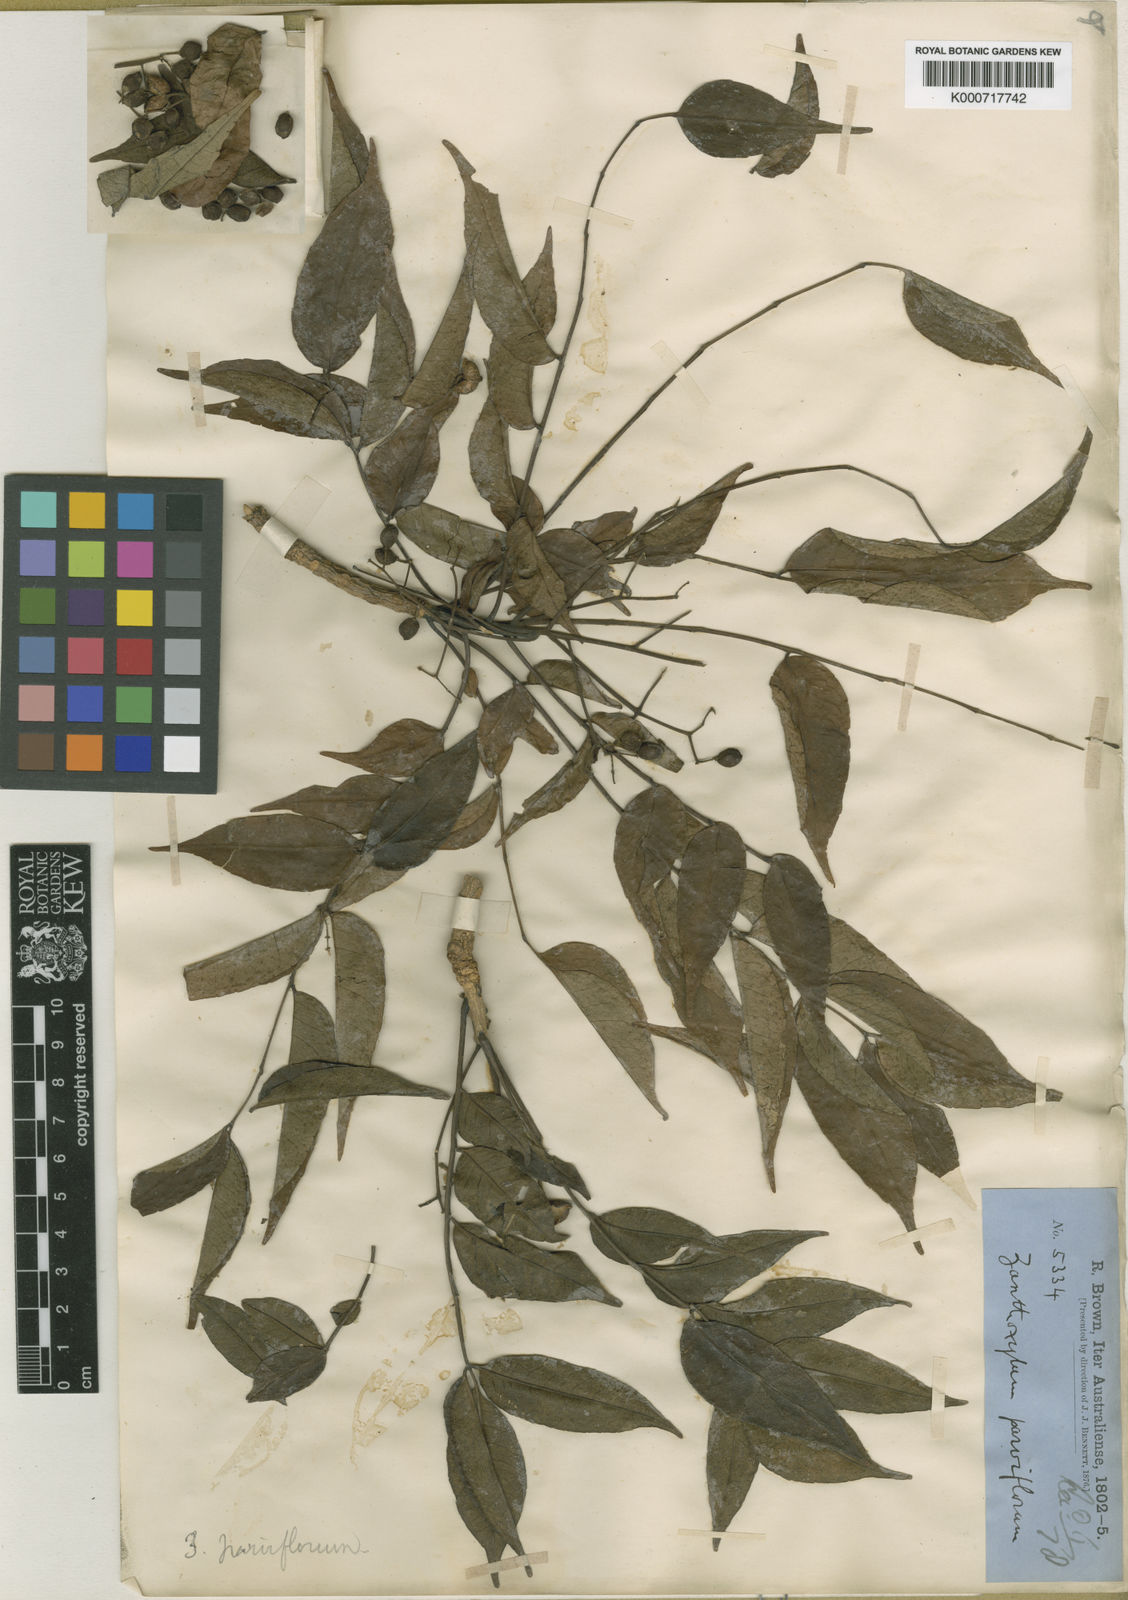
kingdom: Plantae
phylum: Tracheophyta
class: Magnoliopsida
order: Sapindales
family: Rutaceae
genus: Zanthoxylum
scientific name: Zanthoxylum rhetsa
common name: Indian ivy-rue
